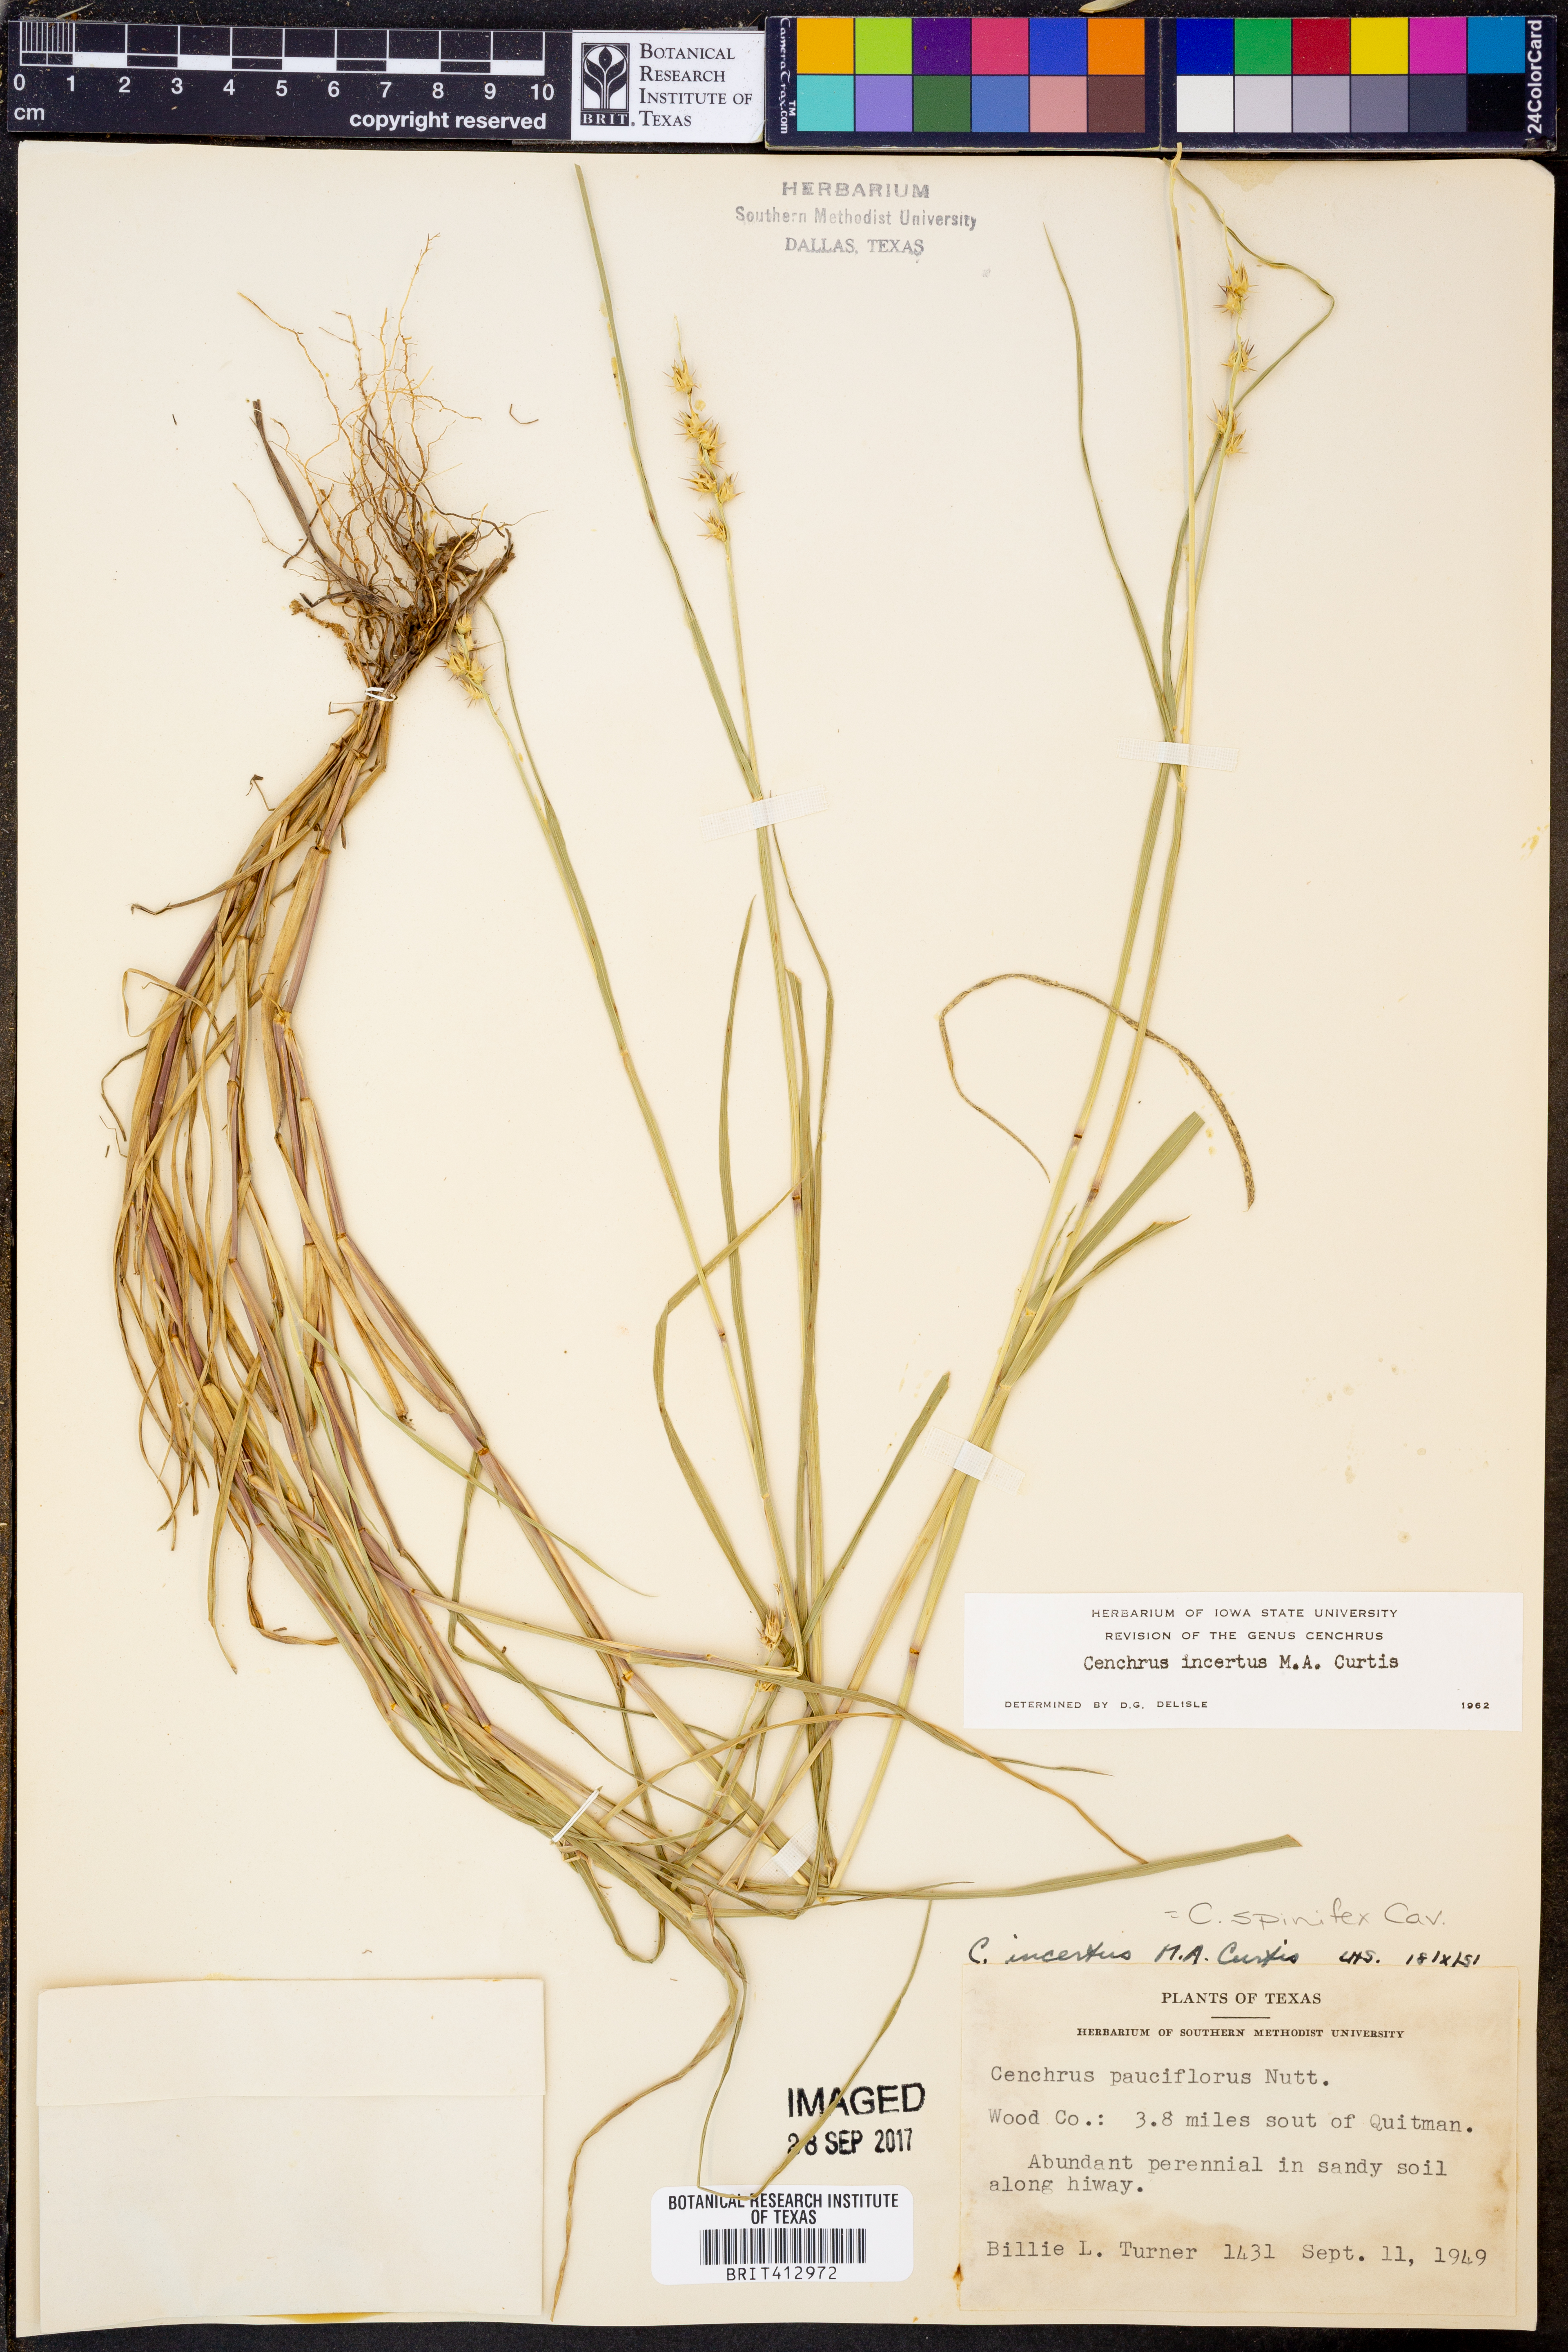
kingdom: Plantae
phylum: Tracheophyta
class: Liliopsida
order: Poales
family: Poaceae
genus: Cenchrus
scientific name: Cenchrus spinifex
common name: Coast sandbur
